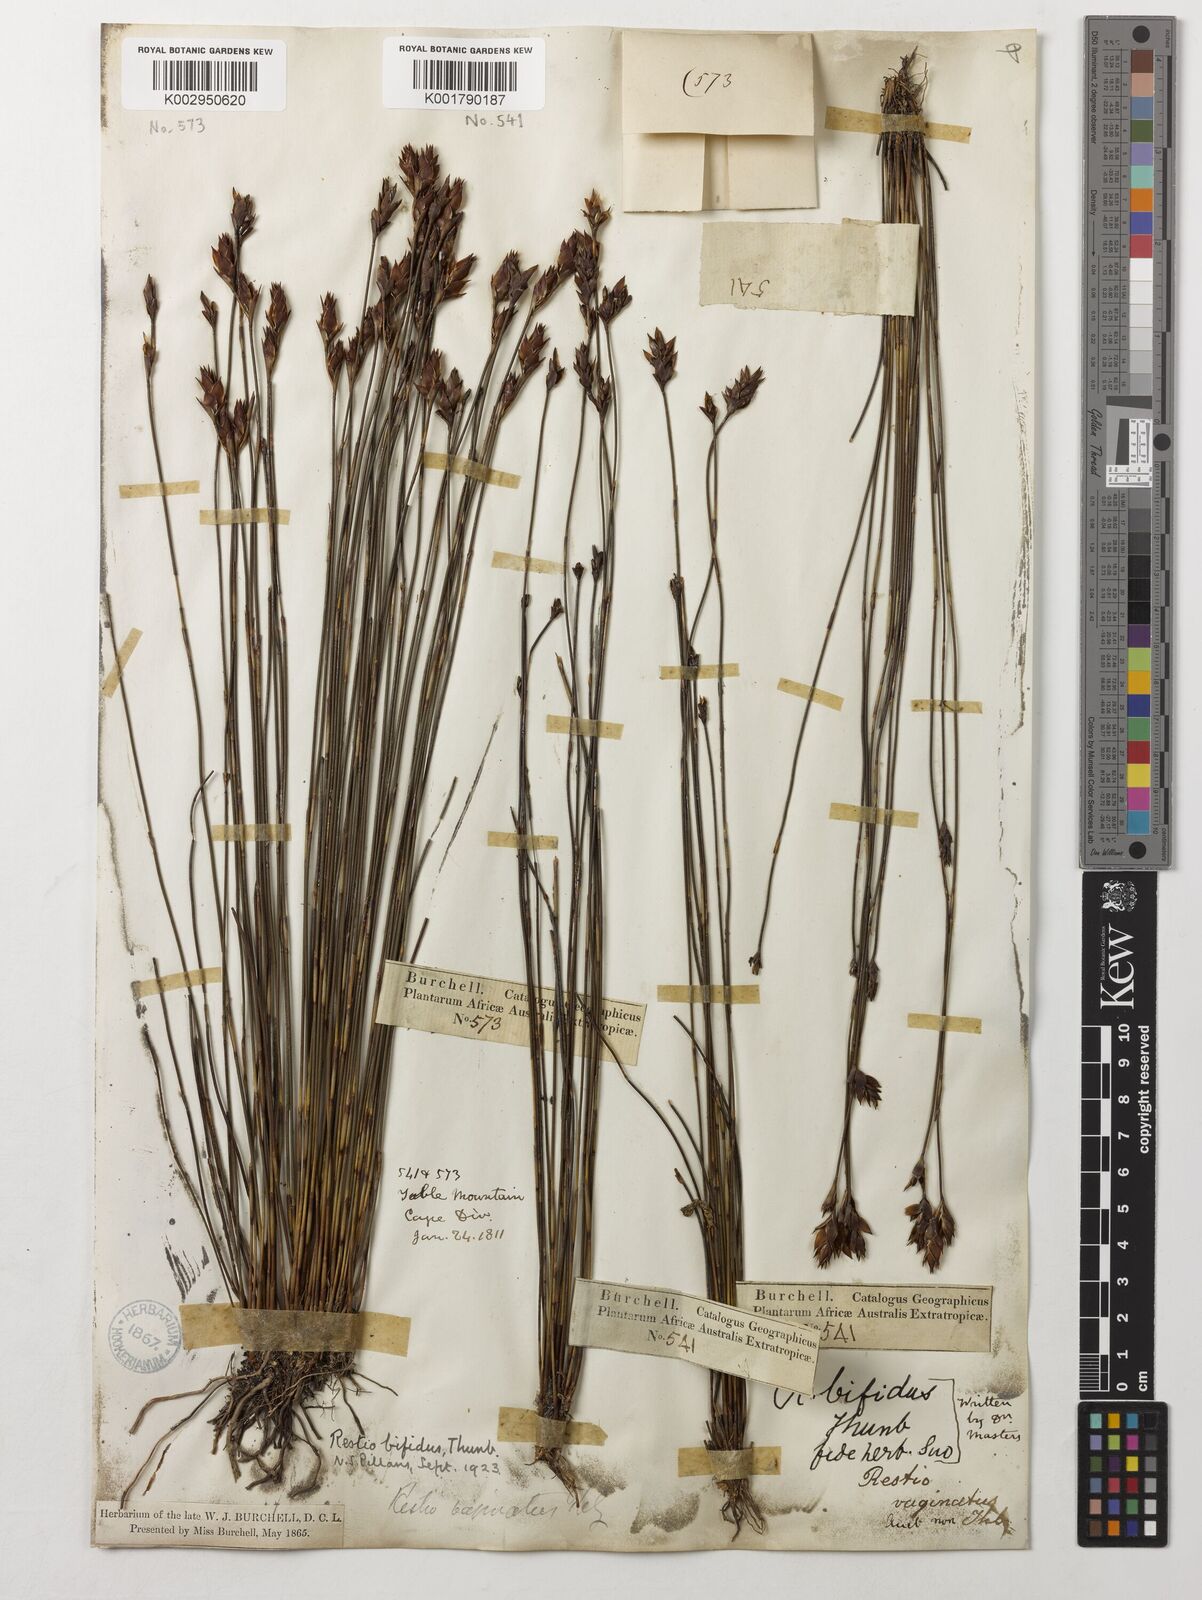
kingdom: Plantae
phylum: Tracheophyta
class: Liliopsida
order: Poales
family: Restionaceae
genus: Restio
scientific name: Restio bifidus
